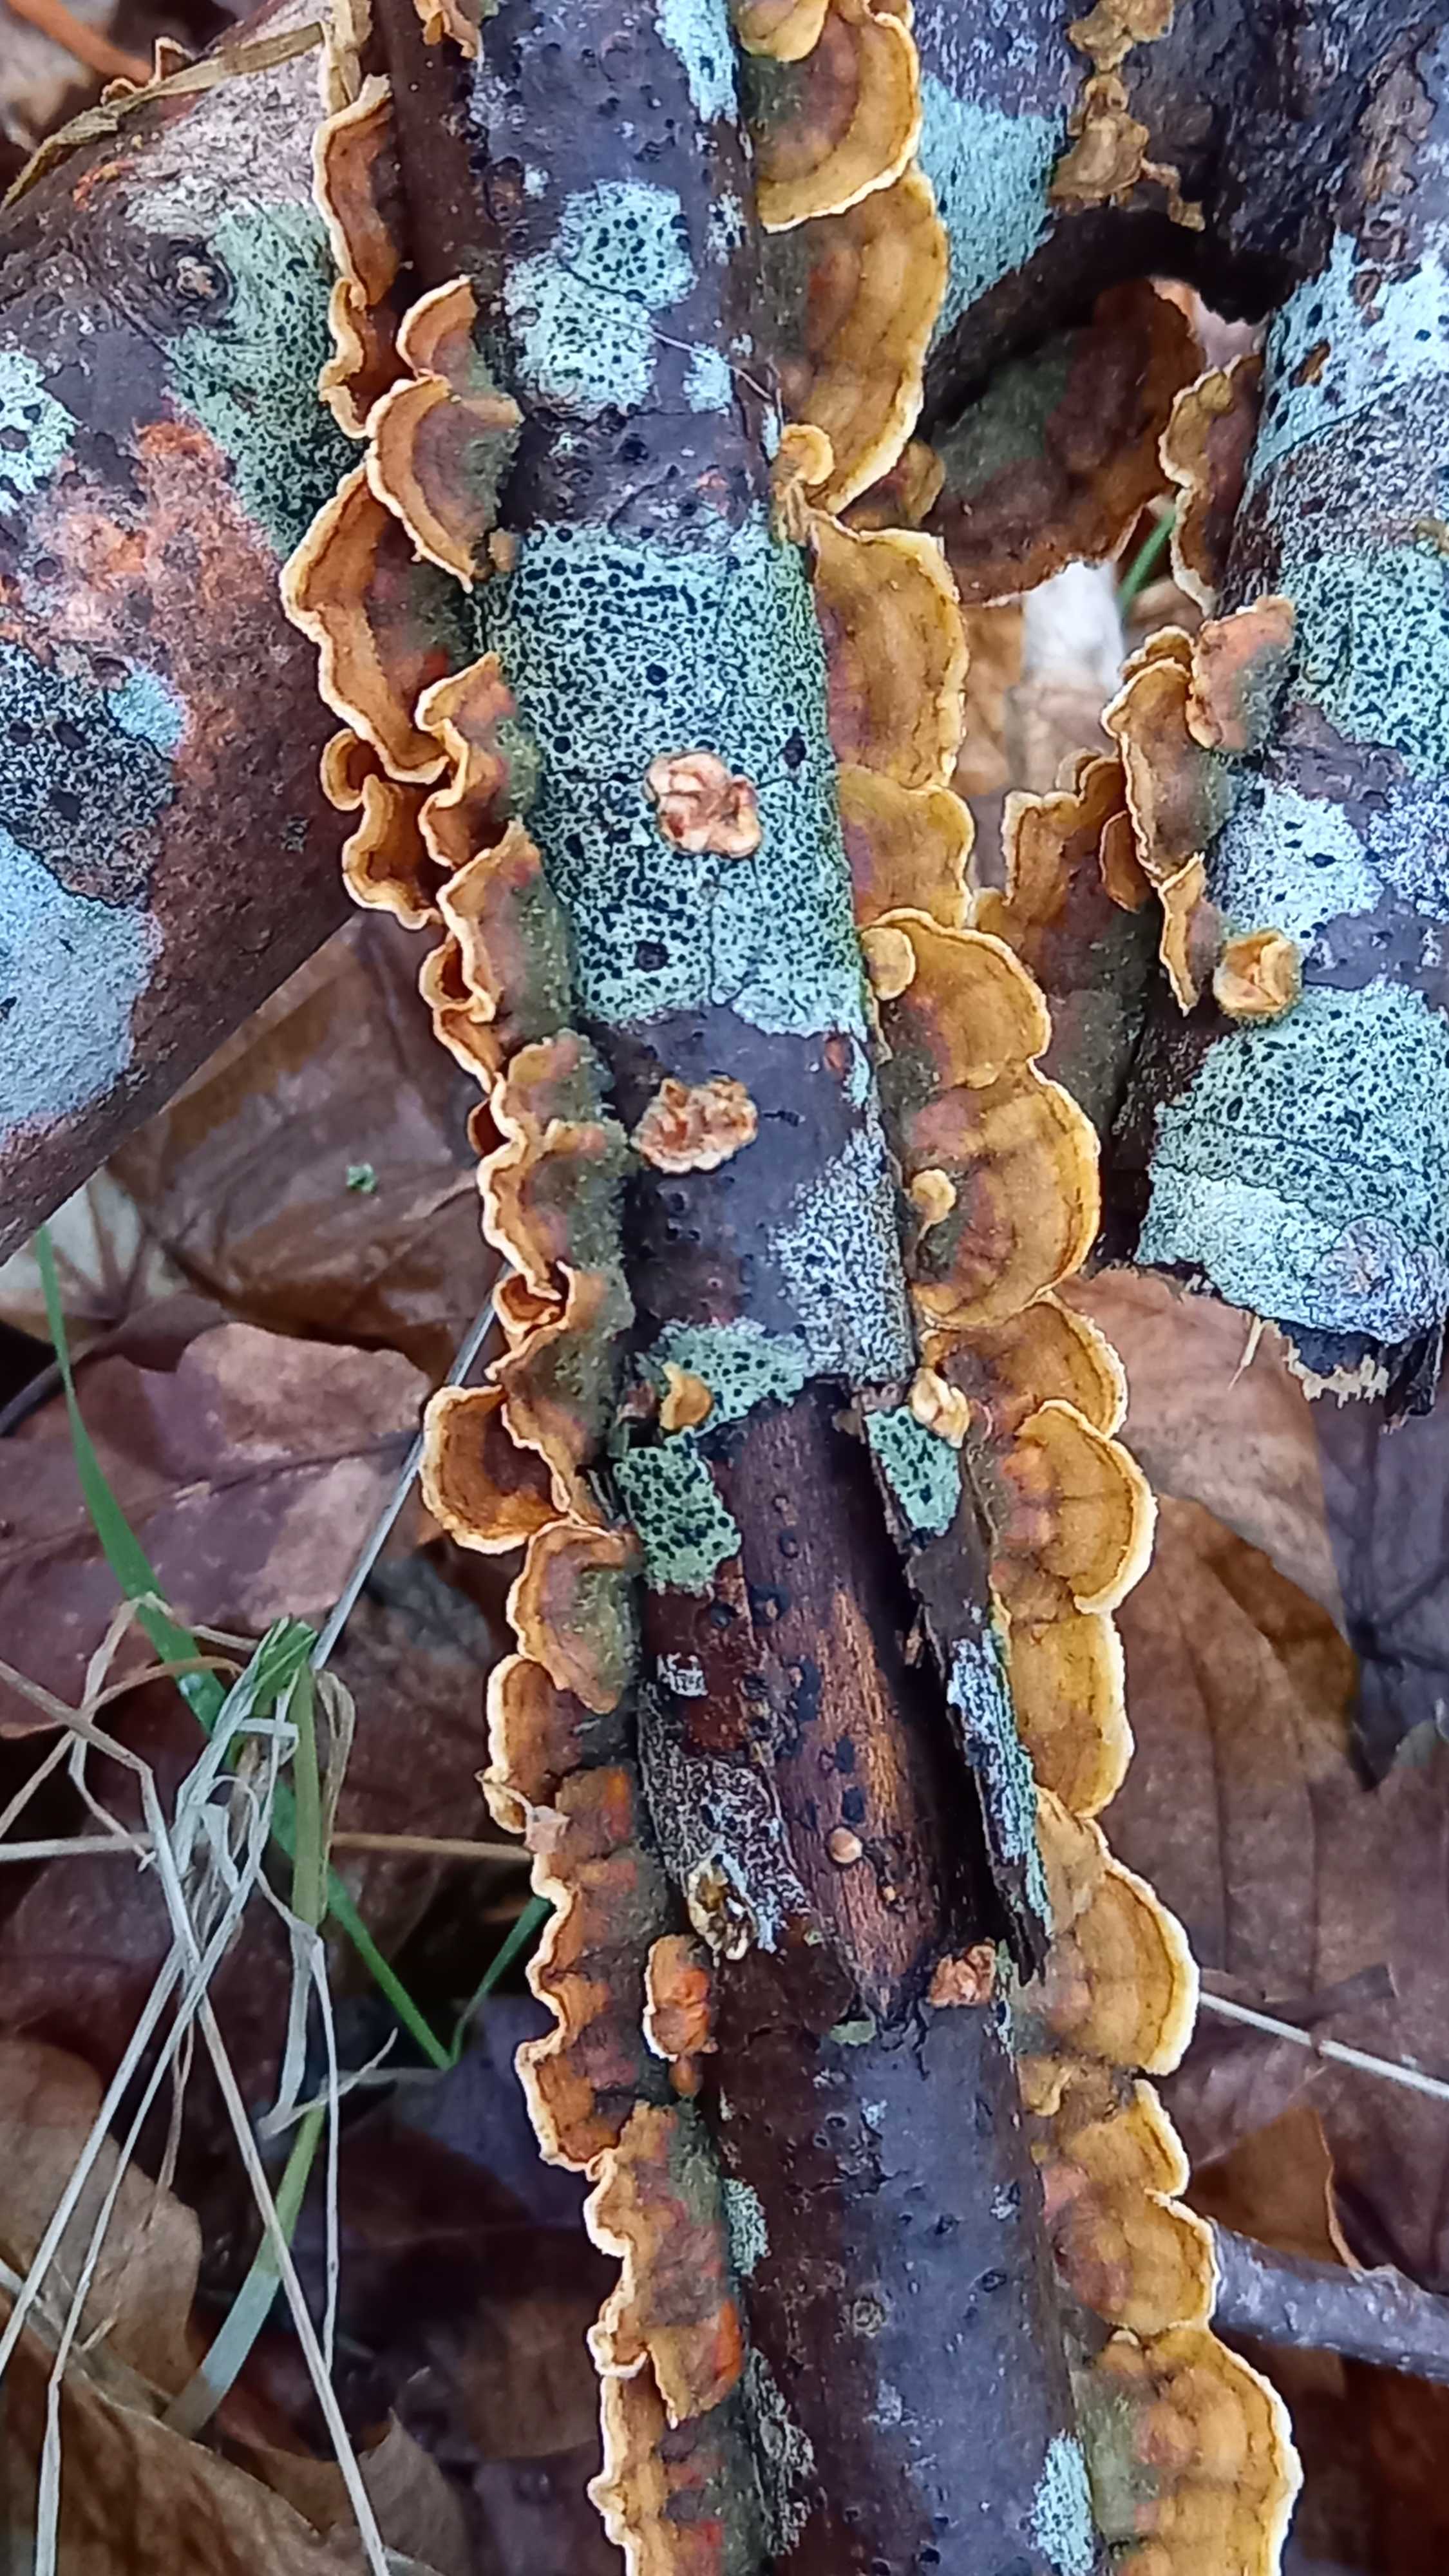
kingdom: Fungi
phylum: Basidiomycota
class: Agaricomycetes
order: Russulales
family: Stereaceae
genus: Stereum
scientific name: Stereum hirsutum
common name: håret lædersvamp
